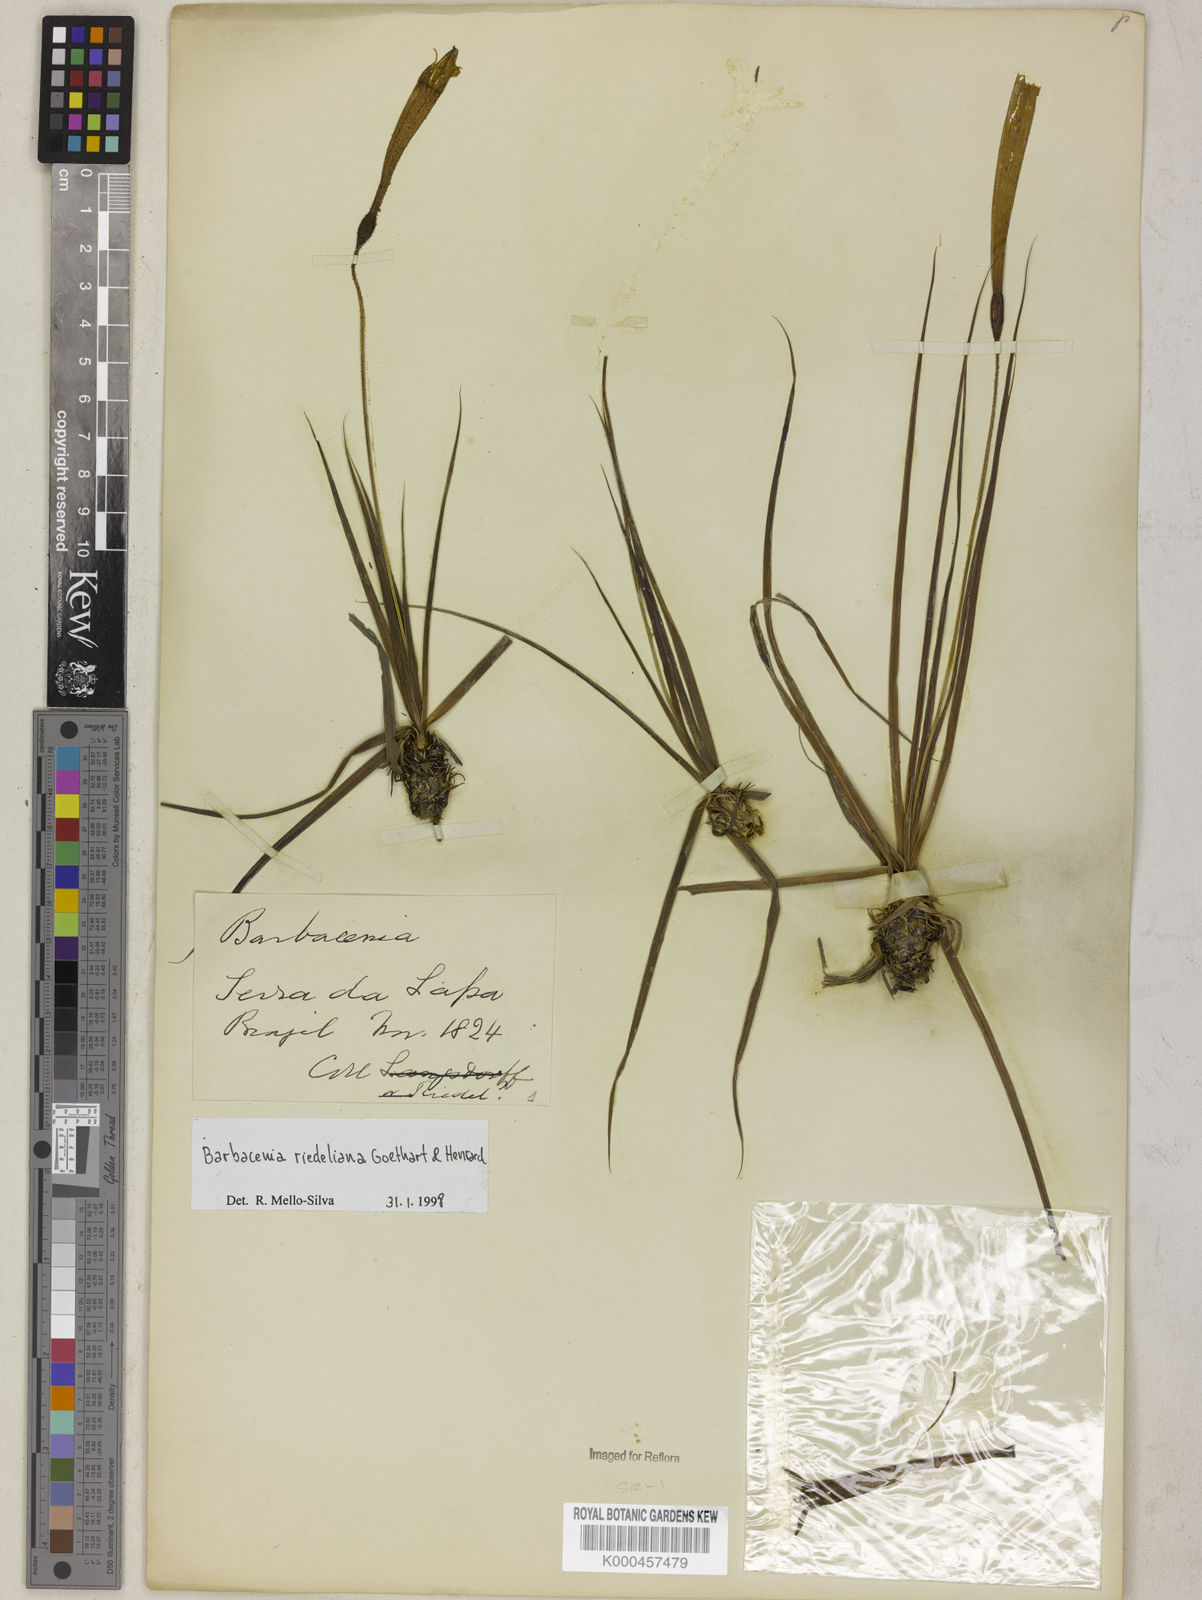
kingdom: Plantae
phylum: Tracheophyta
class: Liliopsida
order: Pandanales
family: Velloziaceae
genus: Barbacenia
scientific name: Barbacenia riedeliana
